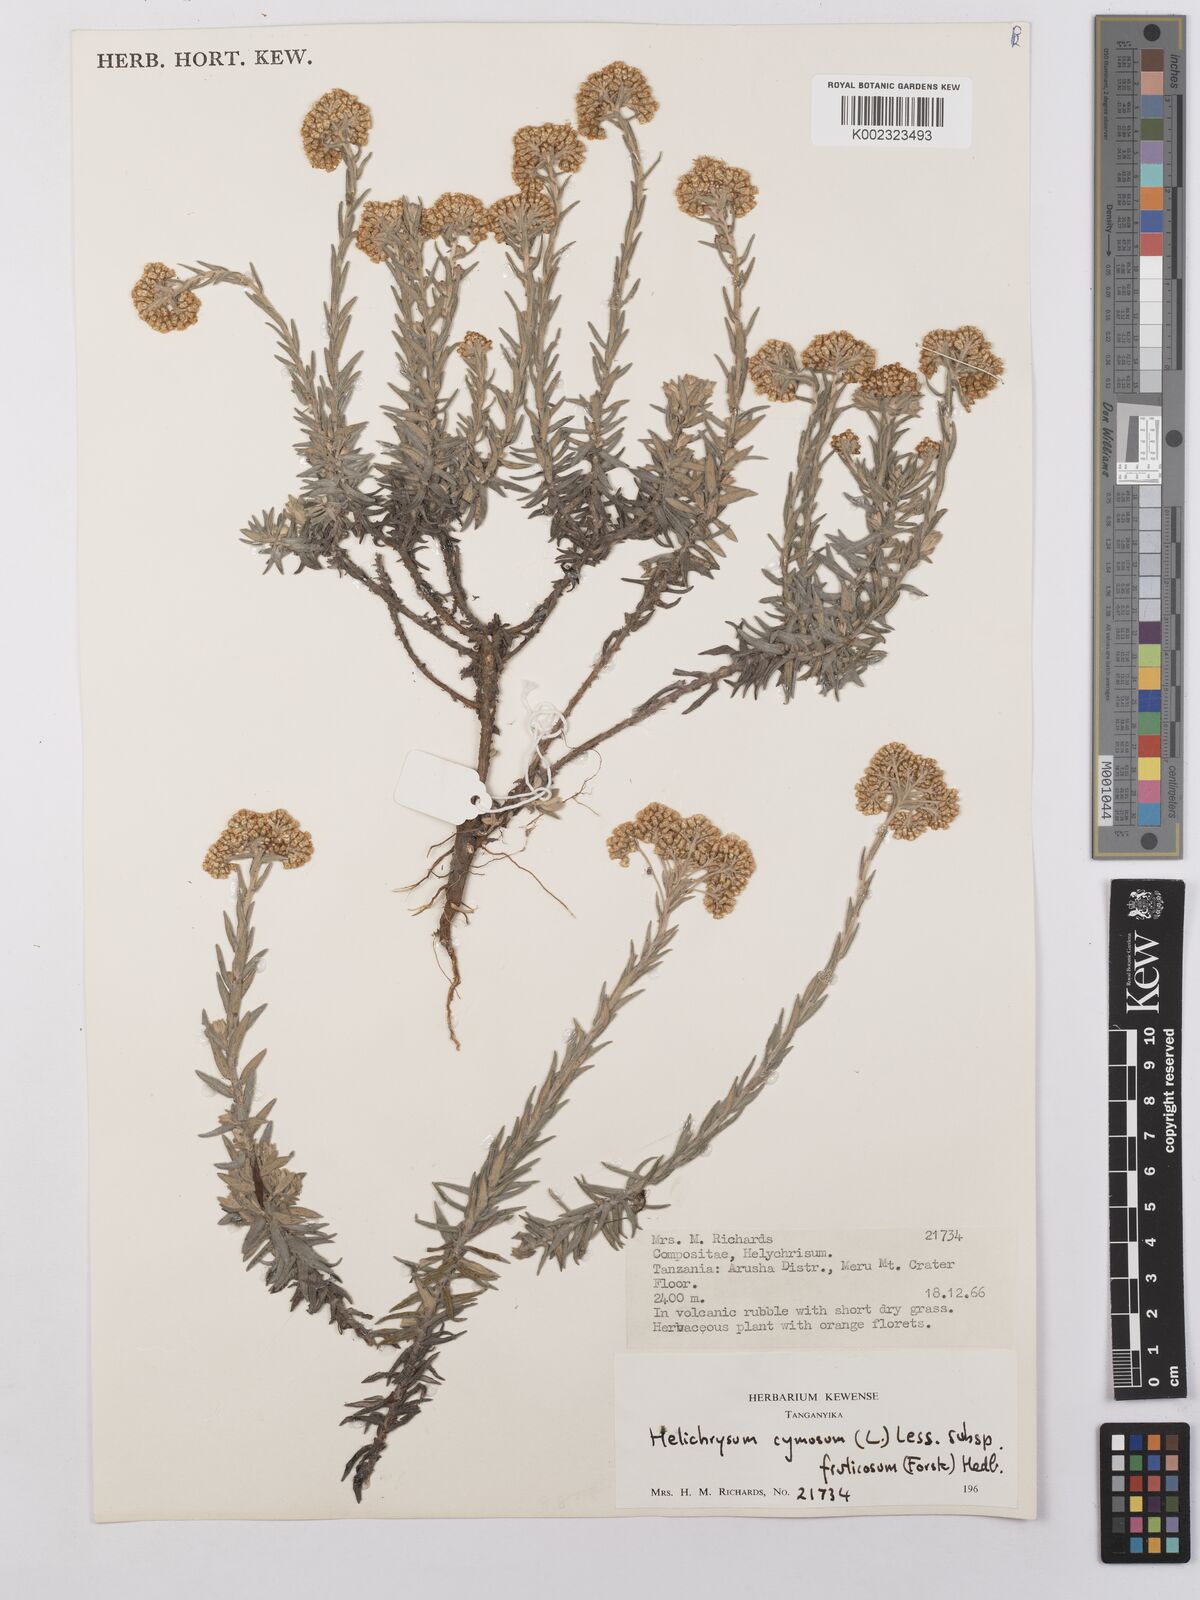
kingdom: Plantae
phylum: Tracheophyta
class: Magnoliopsida
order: Asterales
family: Asteraceae
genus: Helichrysum
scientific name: Helichrysum forskahlii
